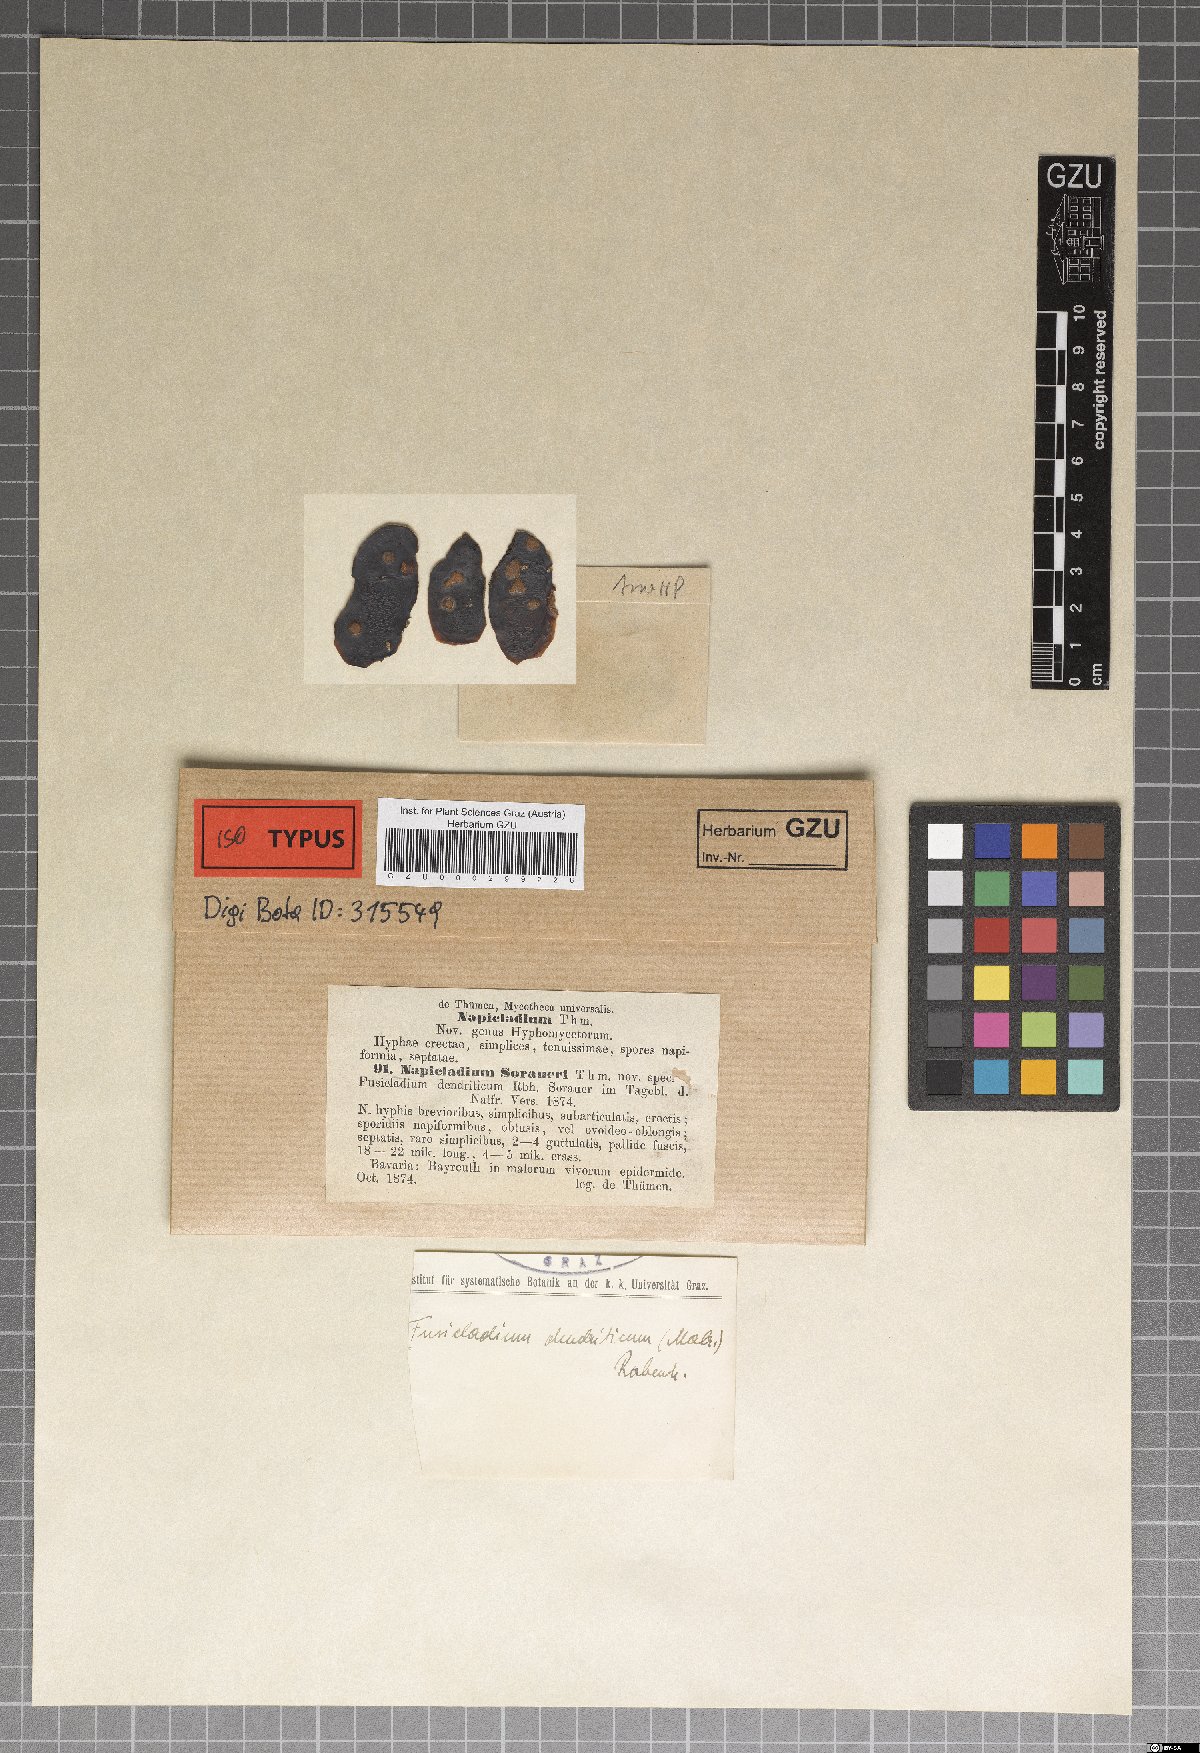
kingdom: Fungi
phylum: Ascomycota
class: Dothideomycetes
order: Venturiales
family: Venturiaceae
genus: Venturia
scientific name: Venturia inaequalis
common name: Apple scab
